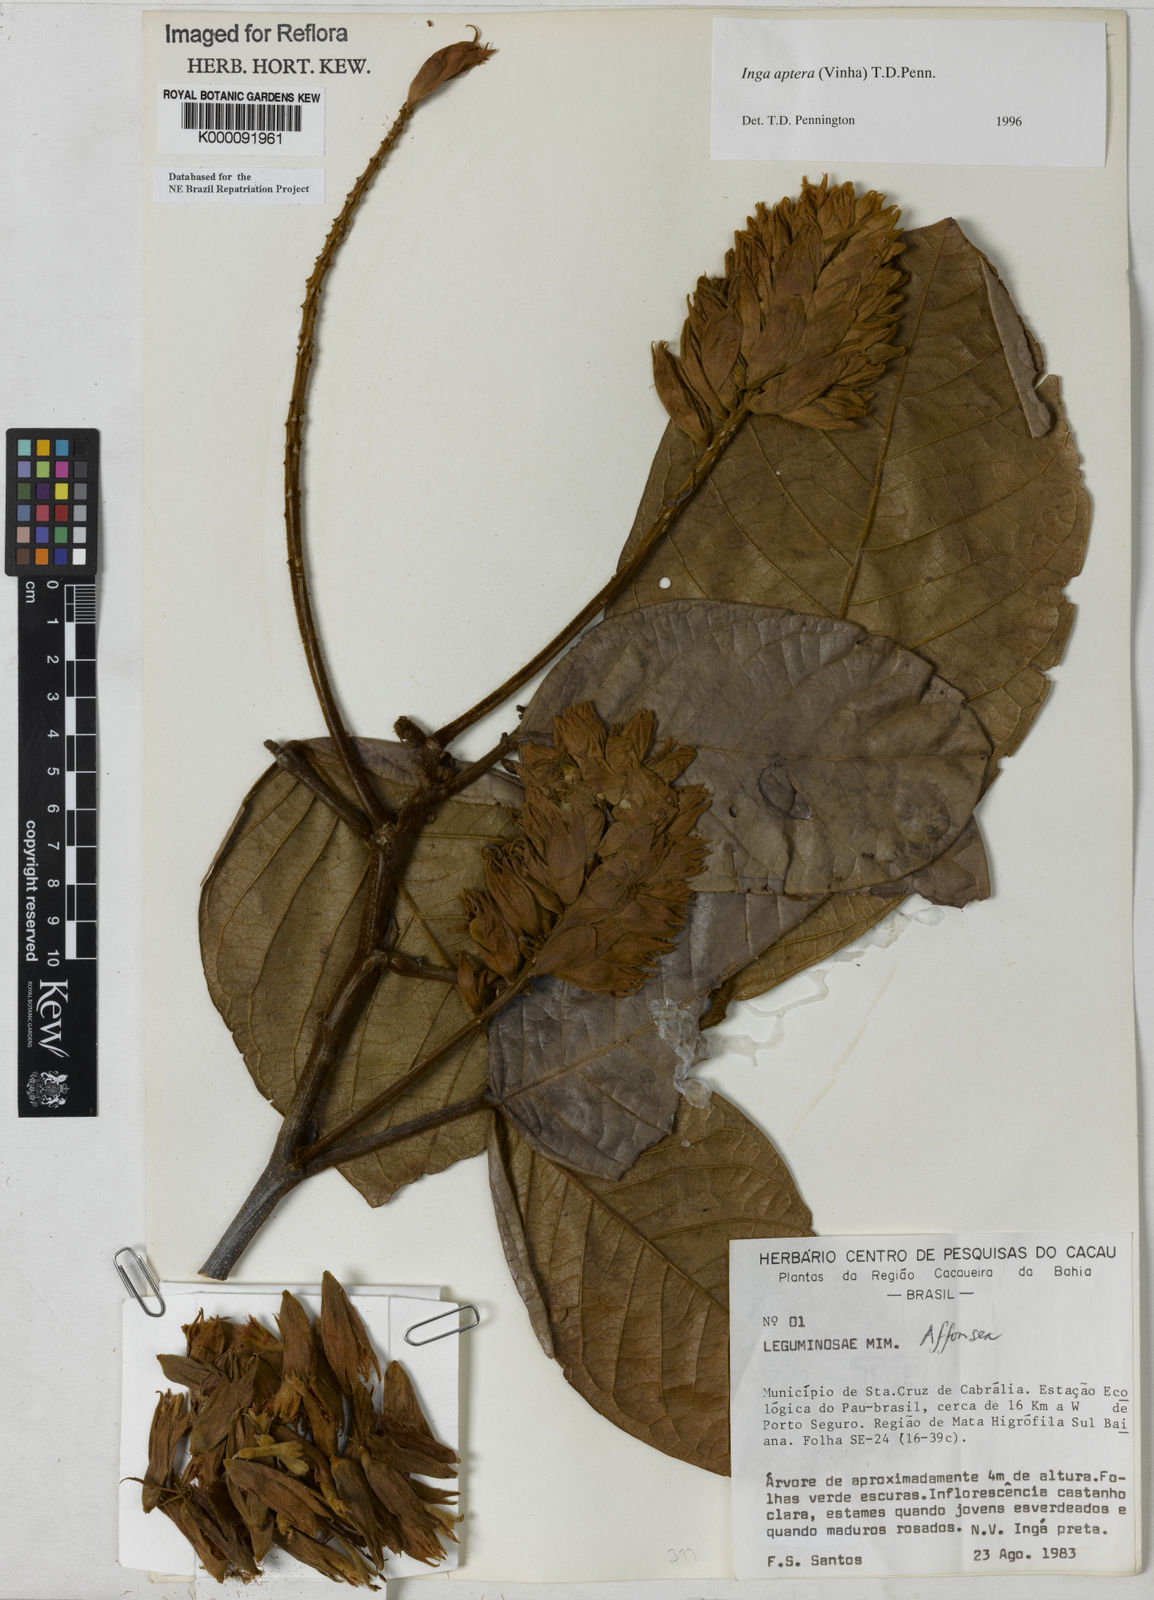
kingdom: Plantae
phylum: Tracheophyta
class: Magnoliopsida
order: Fabales
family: Fabaceae
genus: Inga
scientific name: Inga aptera
